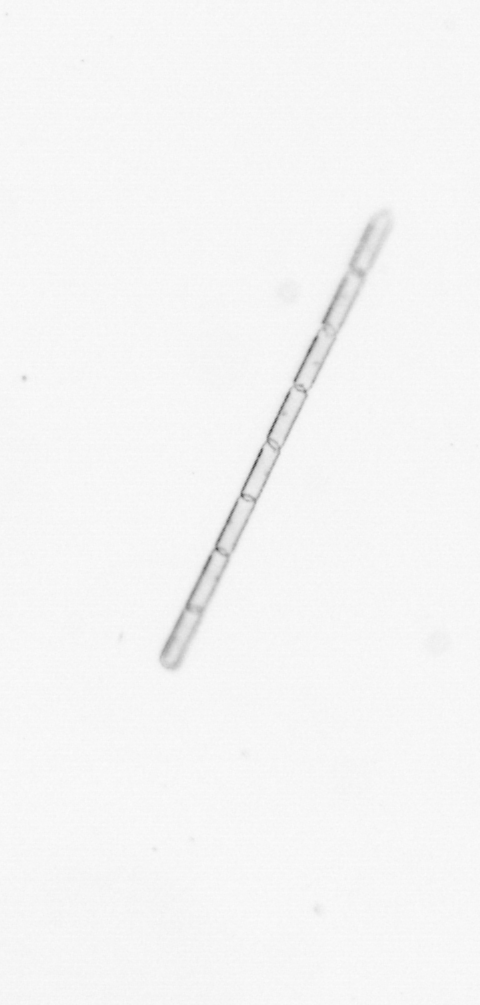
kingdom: Chromista
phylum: Ochrophyta
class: Bacillariophyceae
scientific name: Bacillariophyceae
